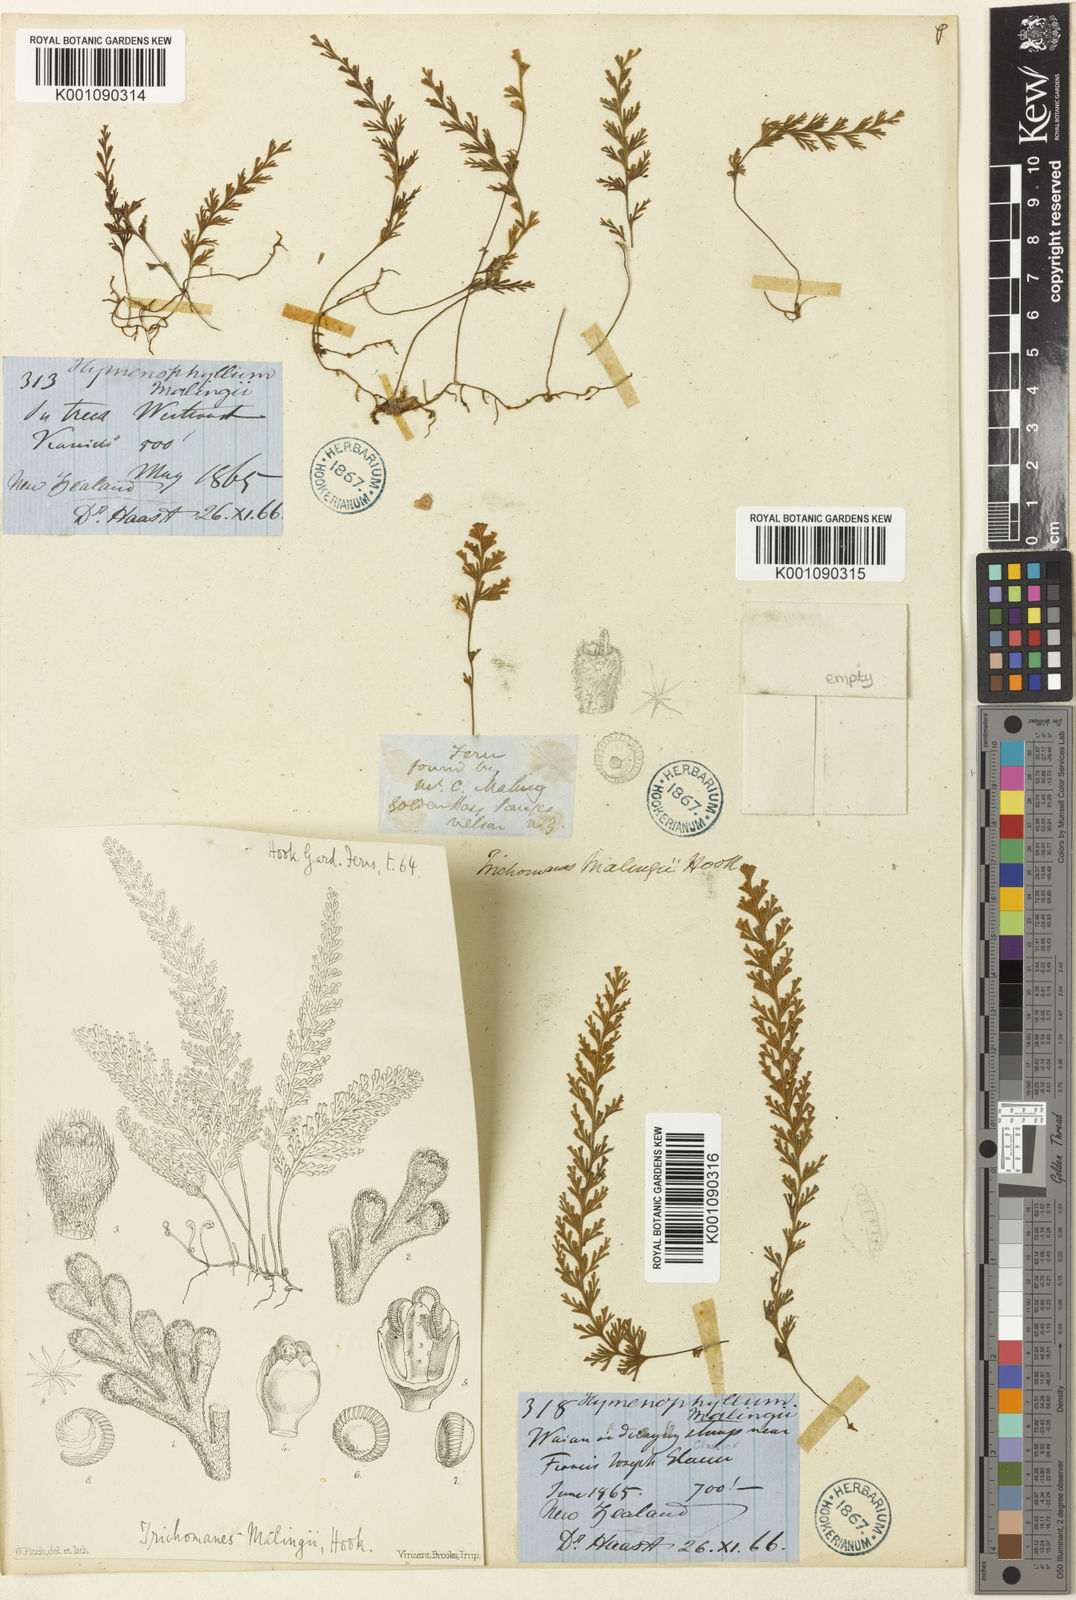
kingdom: Plantae
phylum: Tracheophyta
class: Polypodiopsida
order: Hymenophyllales
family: Hymenophyllaceae
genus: Hymenophyllum
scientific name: Hymenophyllum malingii
